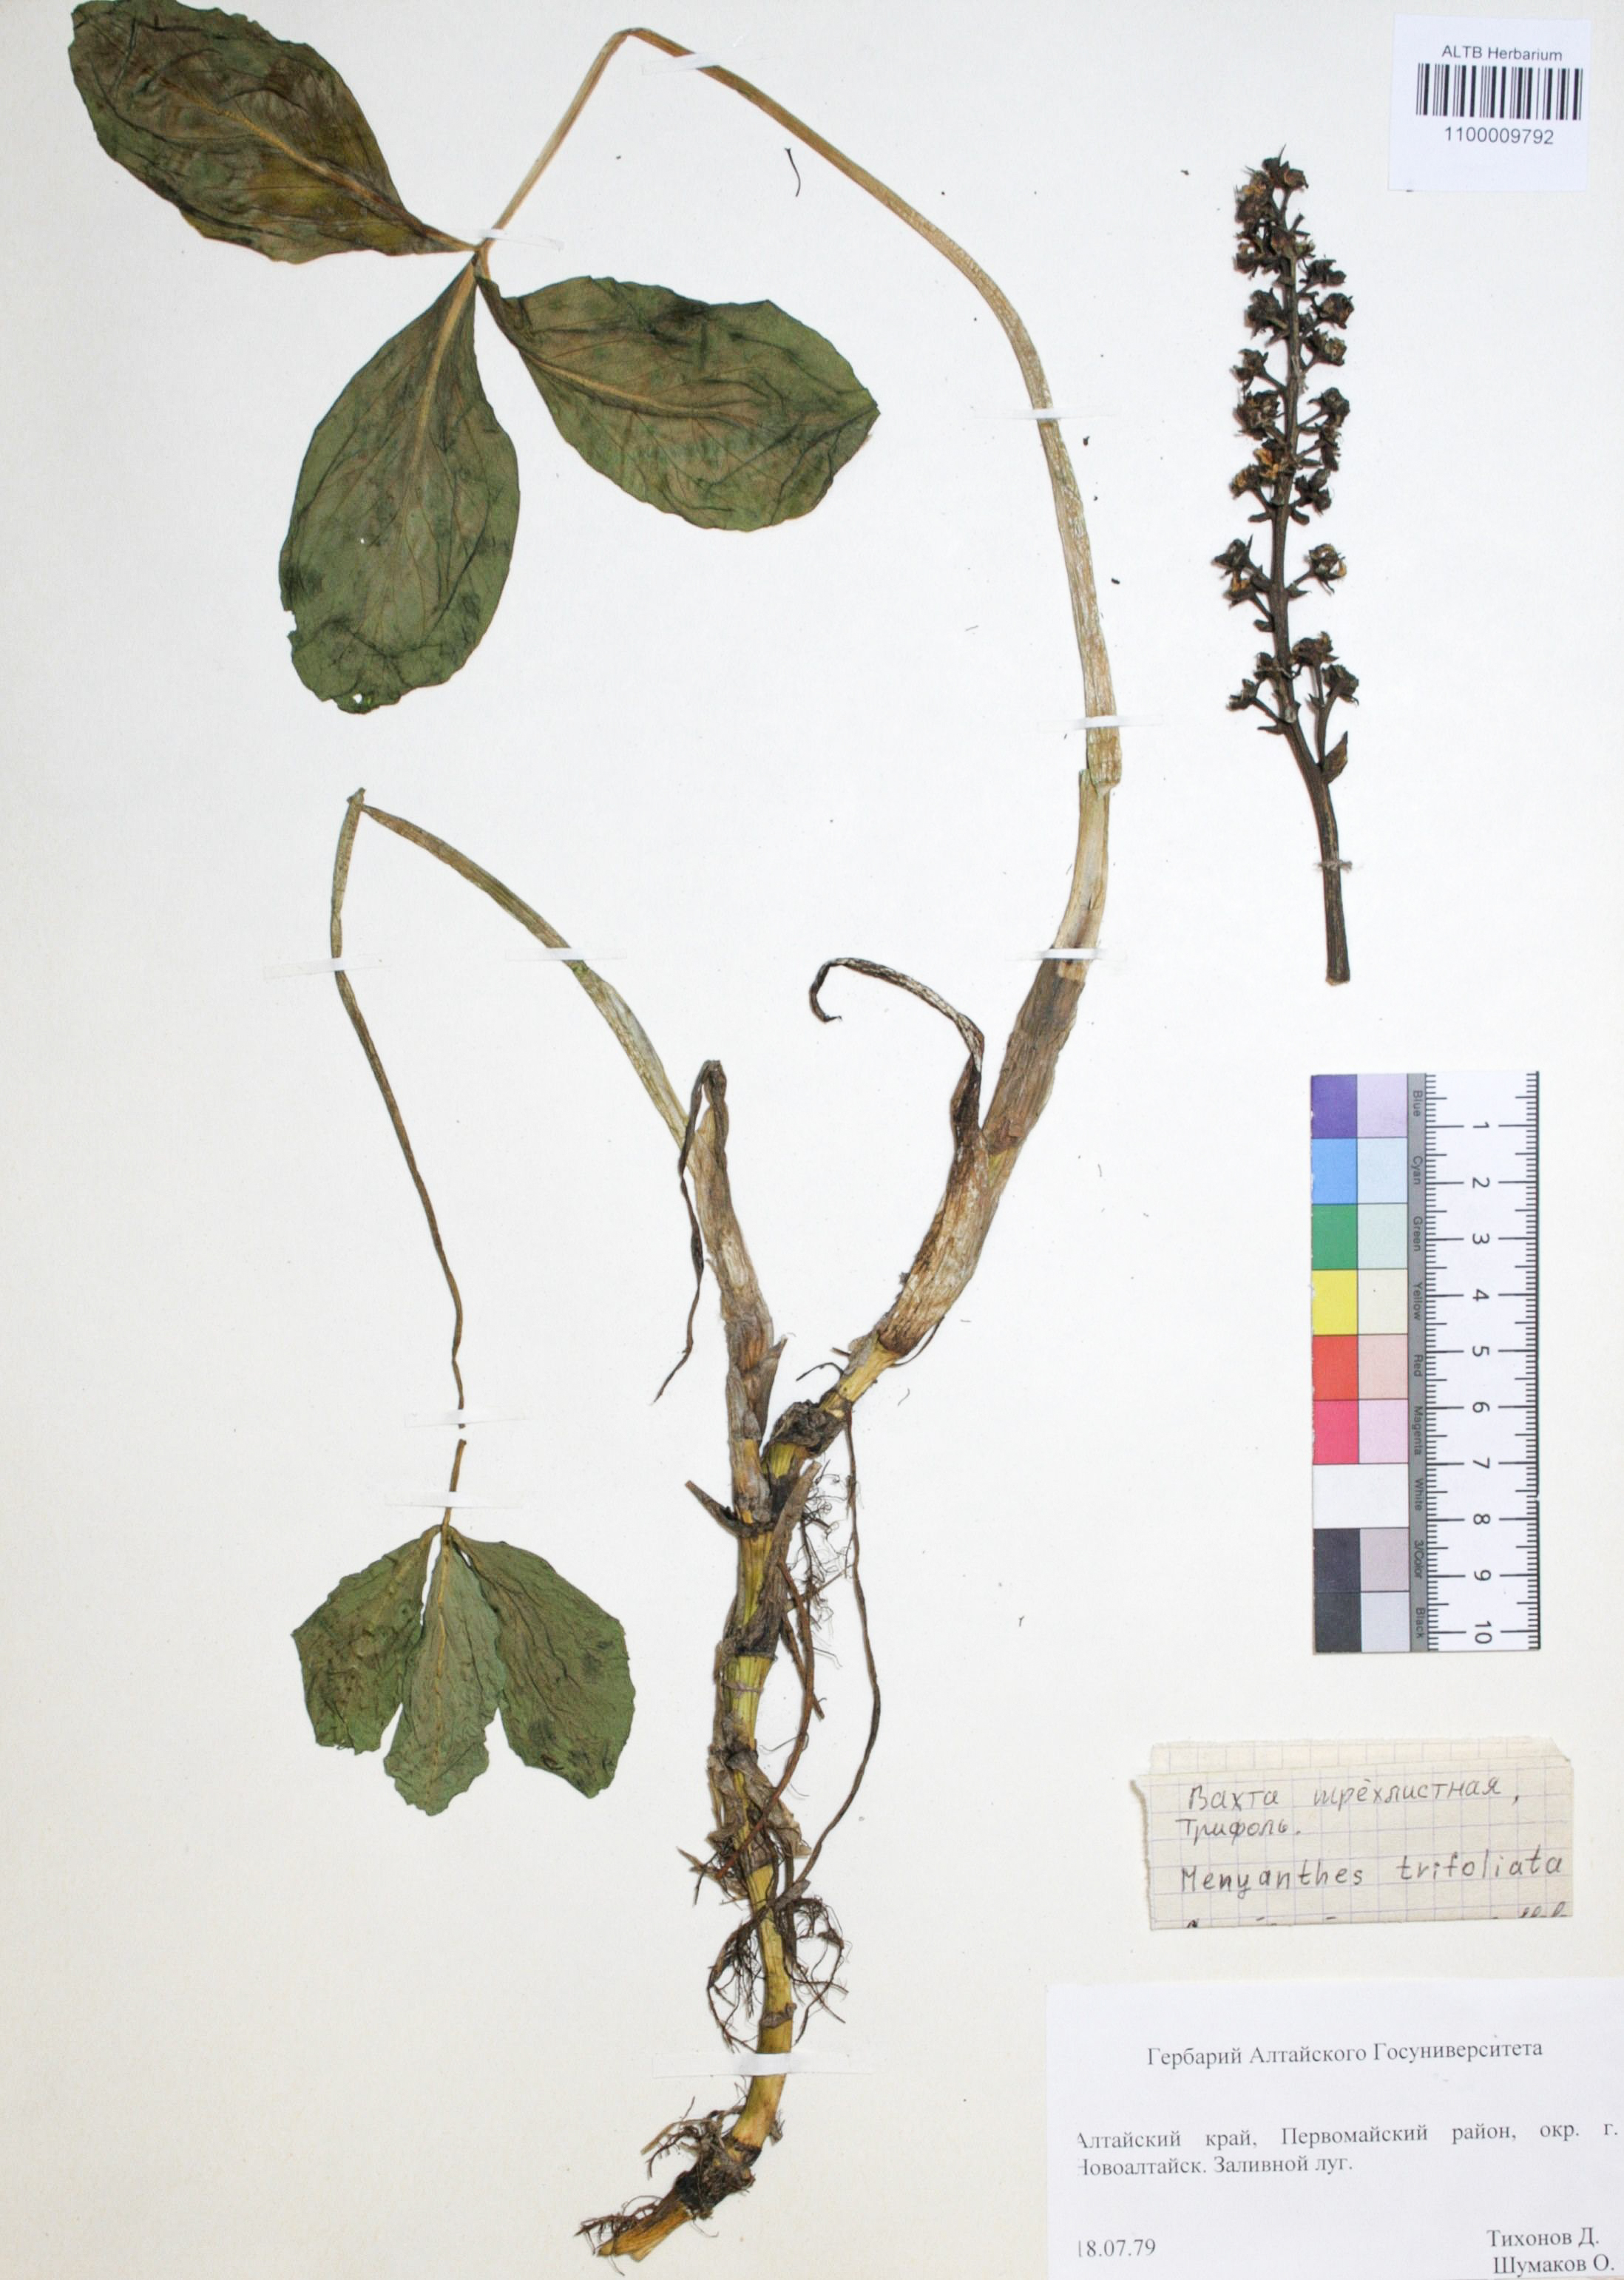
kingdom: Plantae
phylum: Tracheophyta
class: Liliopsida
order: Asparagales
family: Asphodelaceae
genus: Hemerocallis
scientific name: Hemerocallis minor
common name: Small daylily
